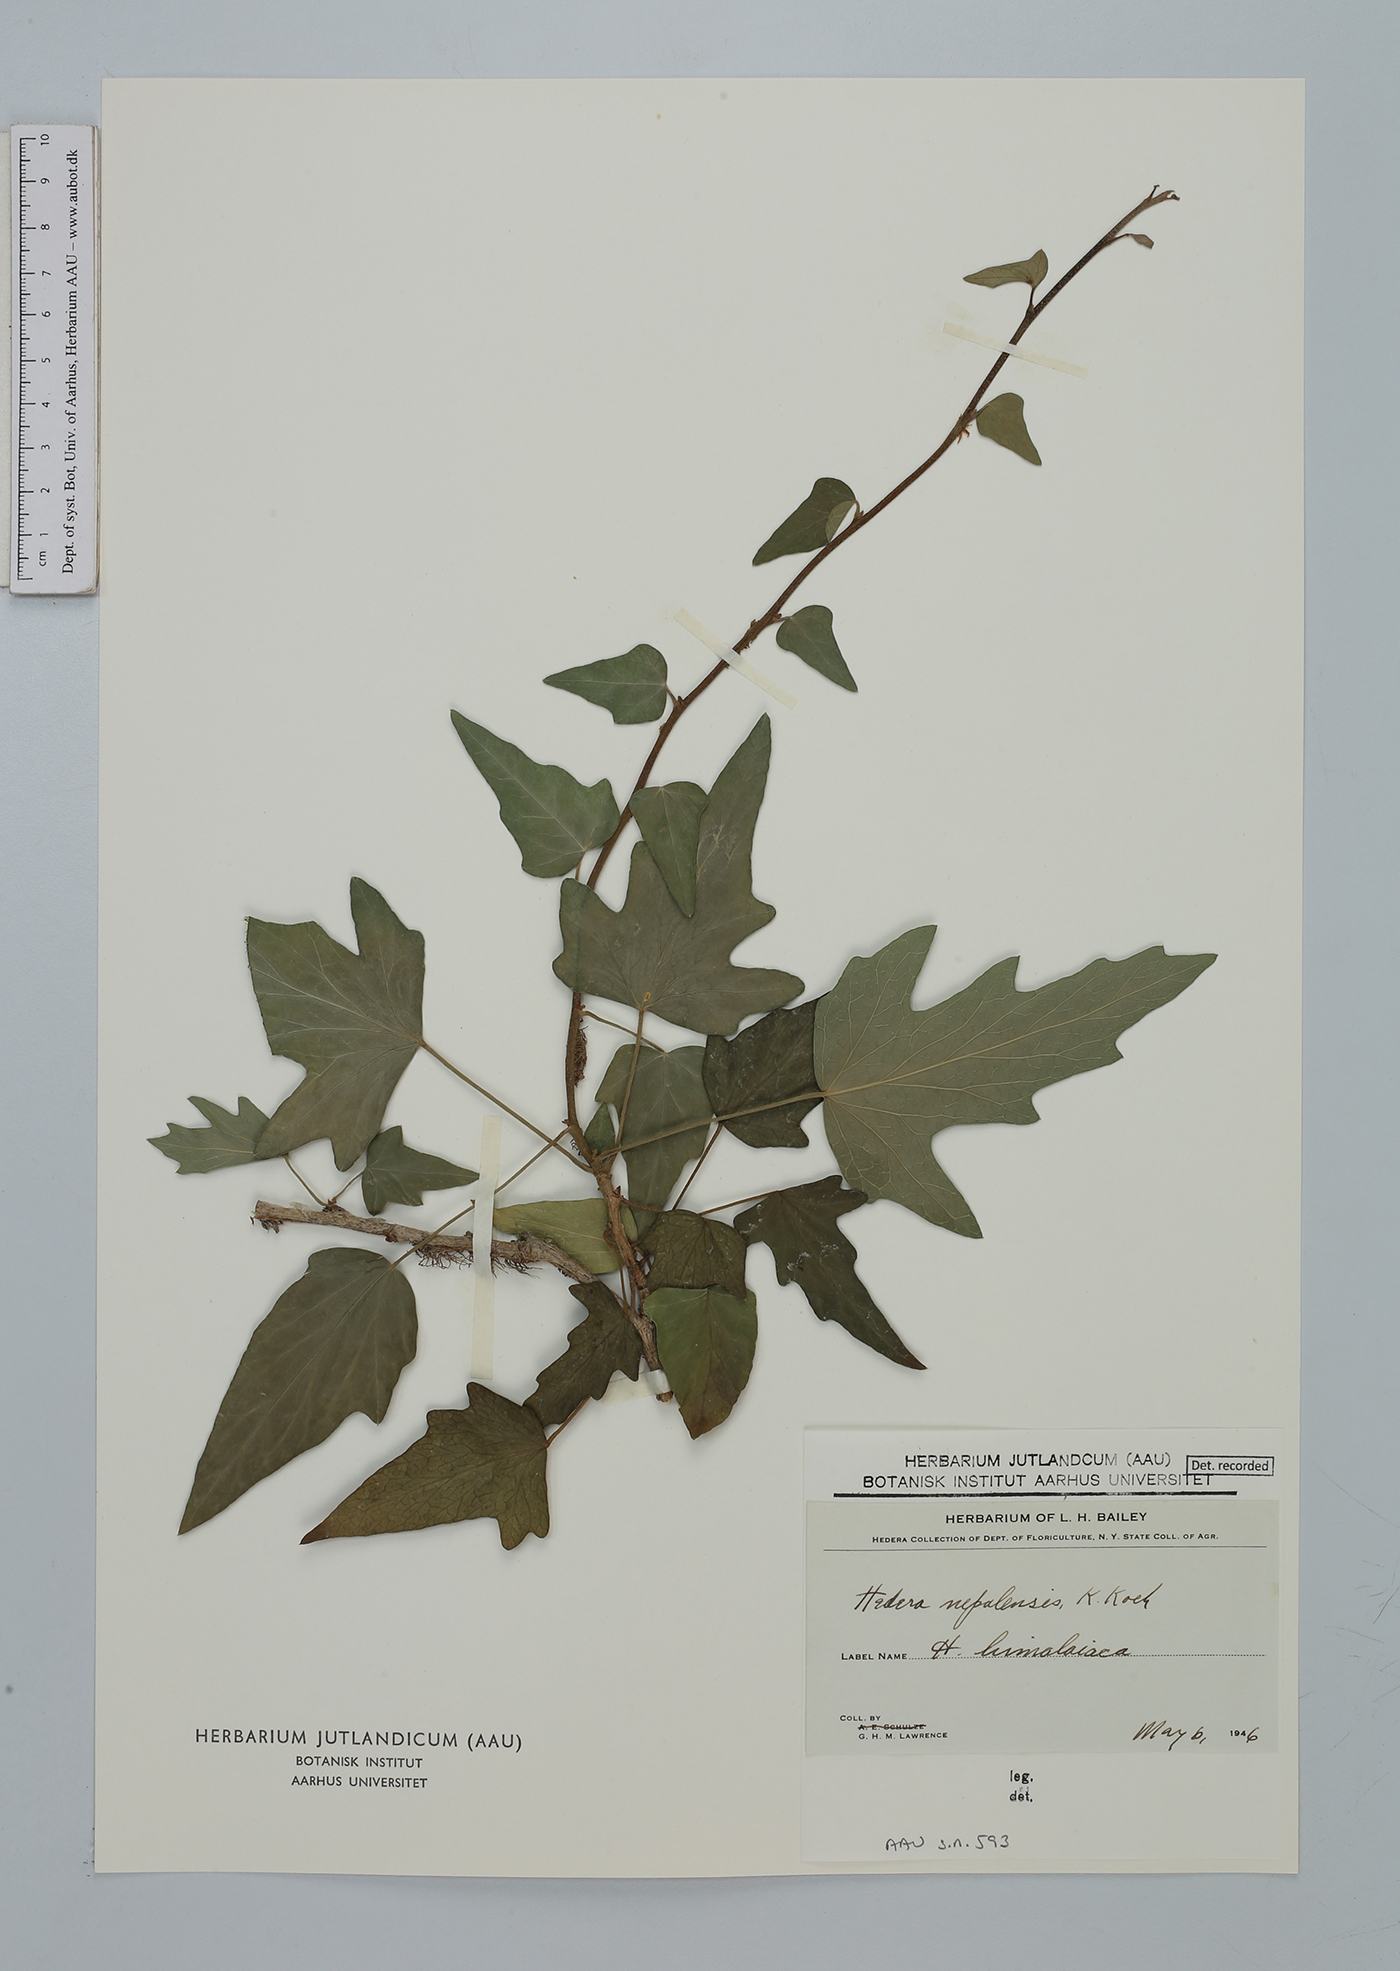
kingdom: Plantae
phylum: Tracheophyta
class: Magnoliopsida
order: Apiales
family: Araliaceae
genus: Hedera
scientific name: Hedera nepalensis
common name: Himalayan ivy
